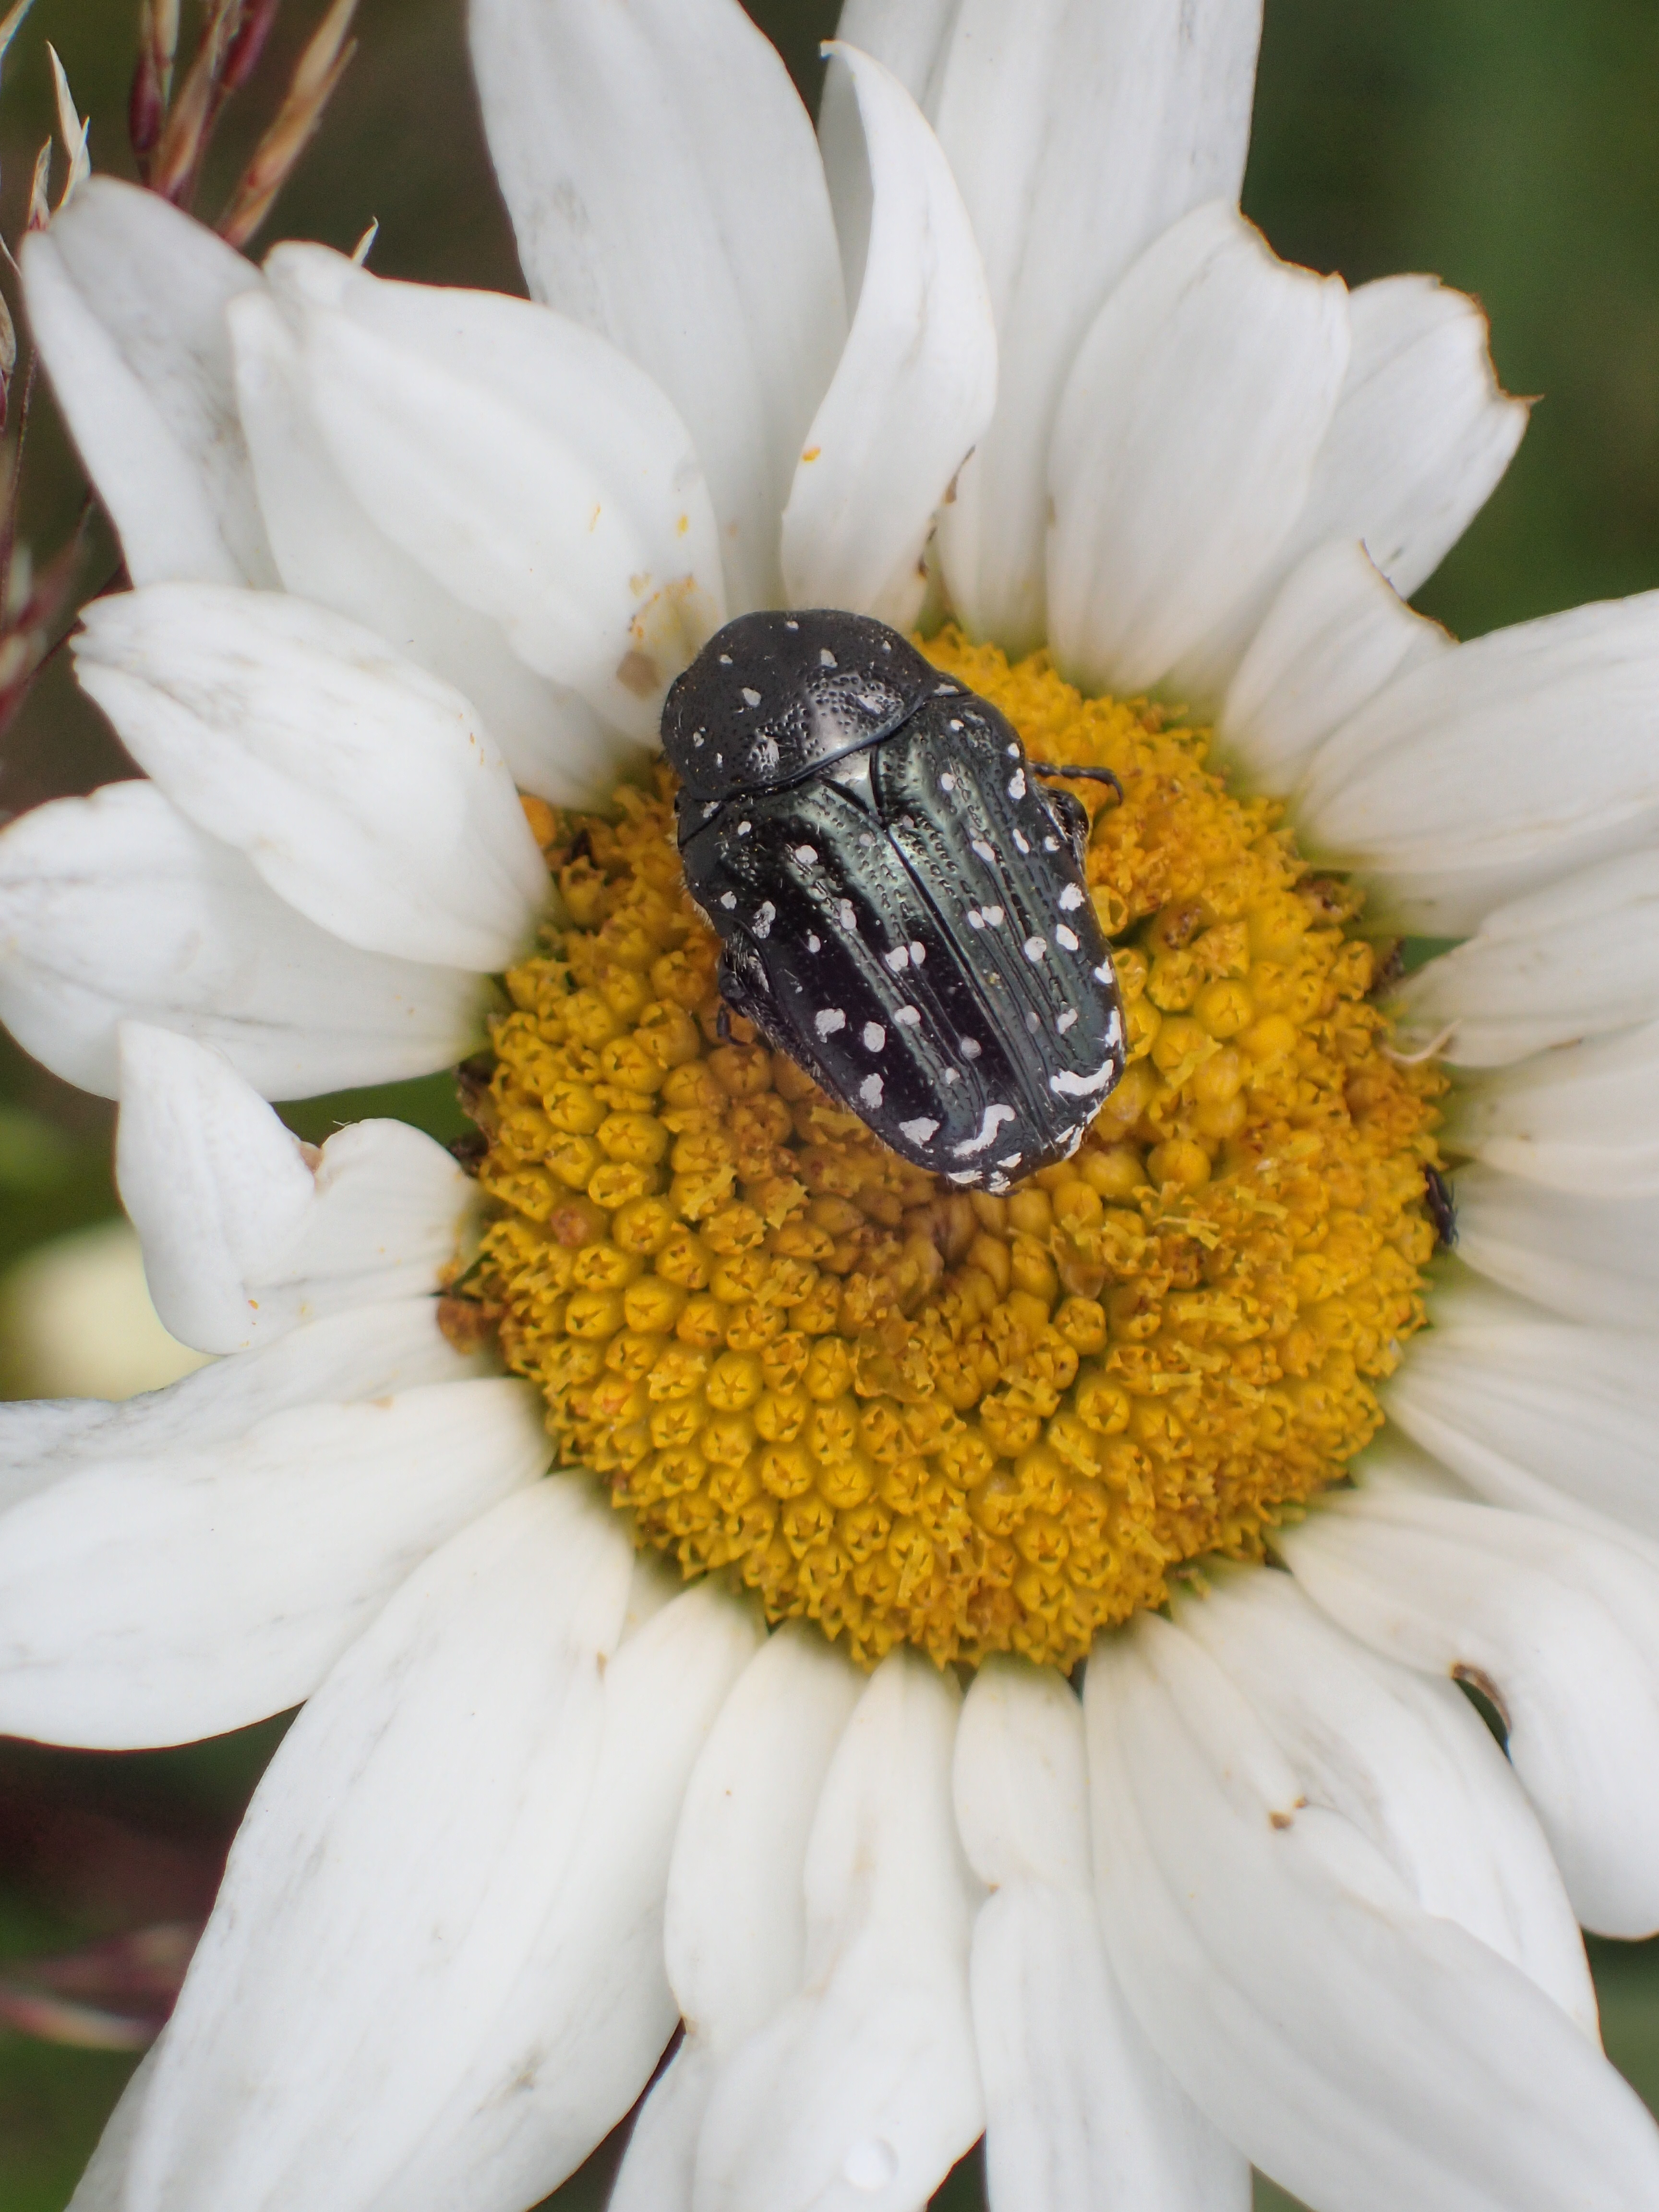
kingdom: Animalia
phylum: Arthropoda
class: Insecta
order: Coleoptera
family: Scarabaeidae
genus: Oxythyrea
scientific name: Oxythyrea funesta
